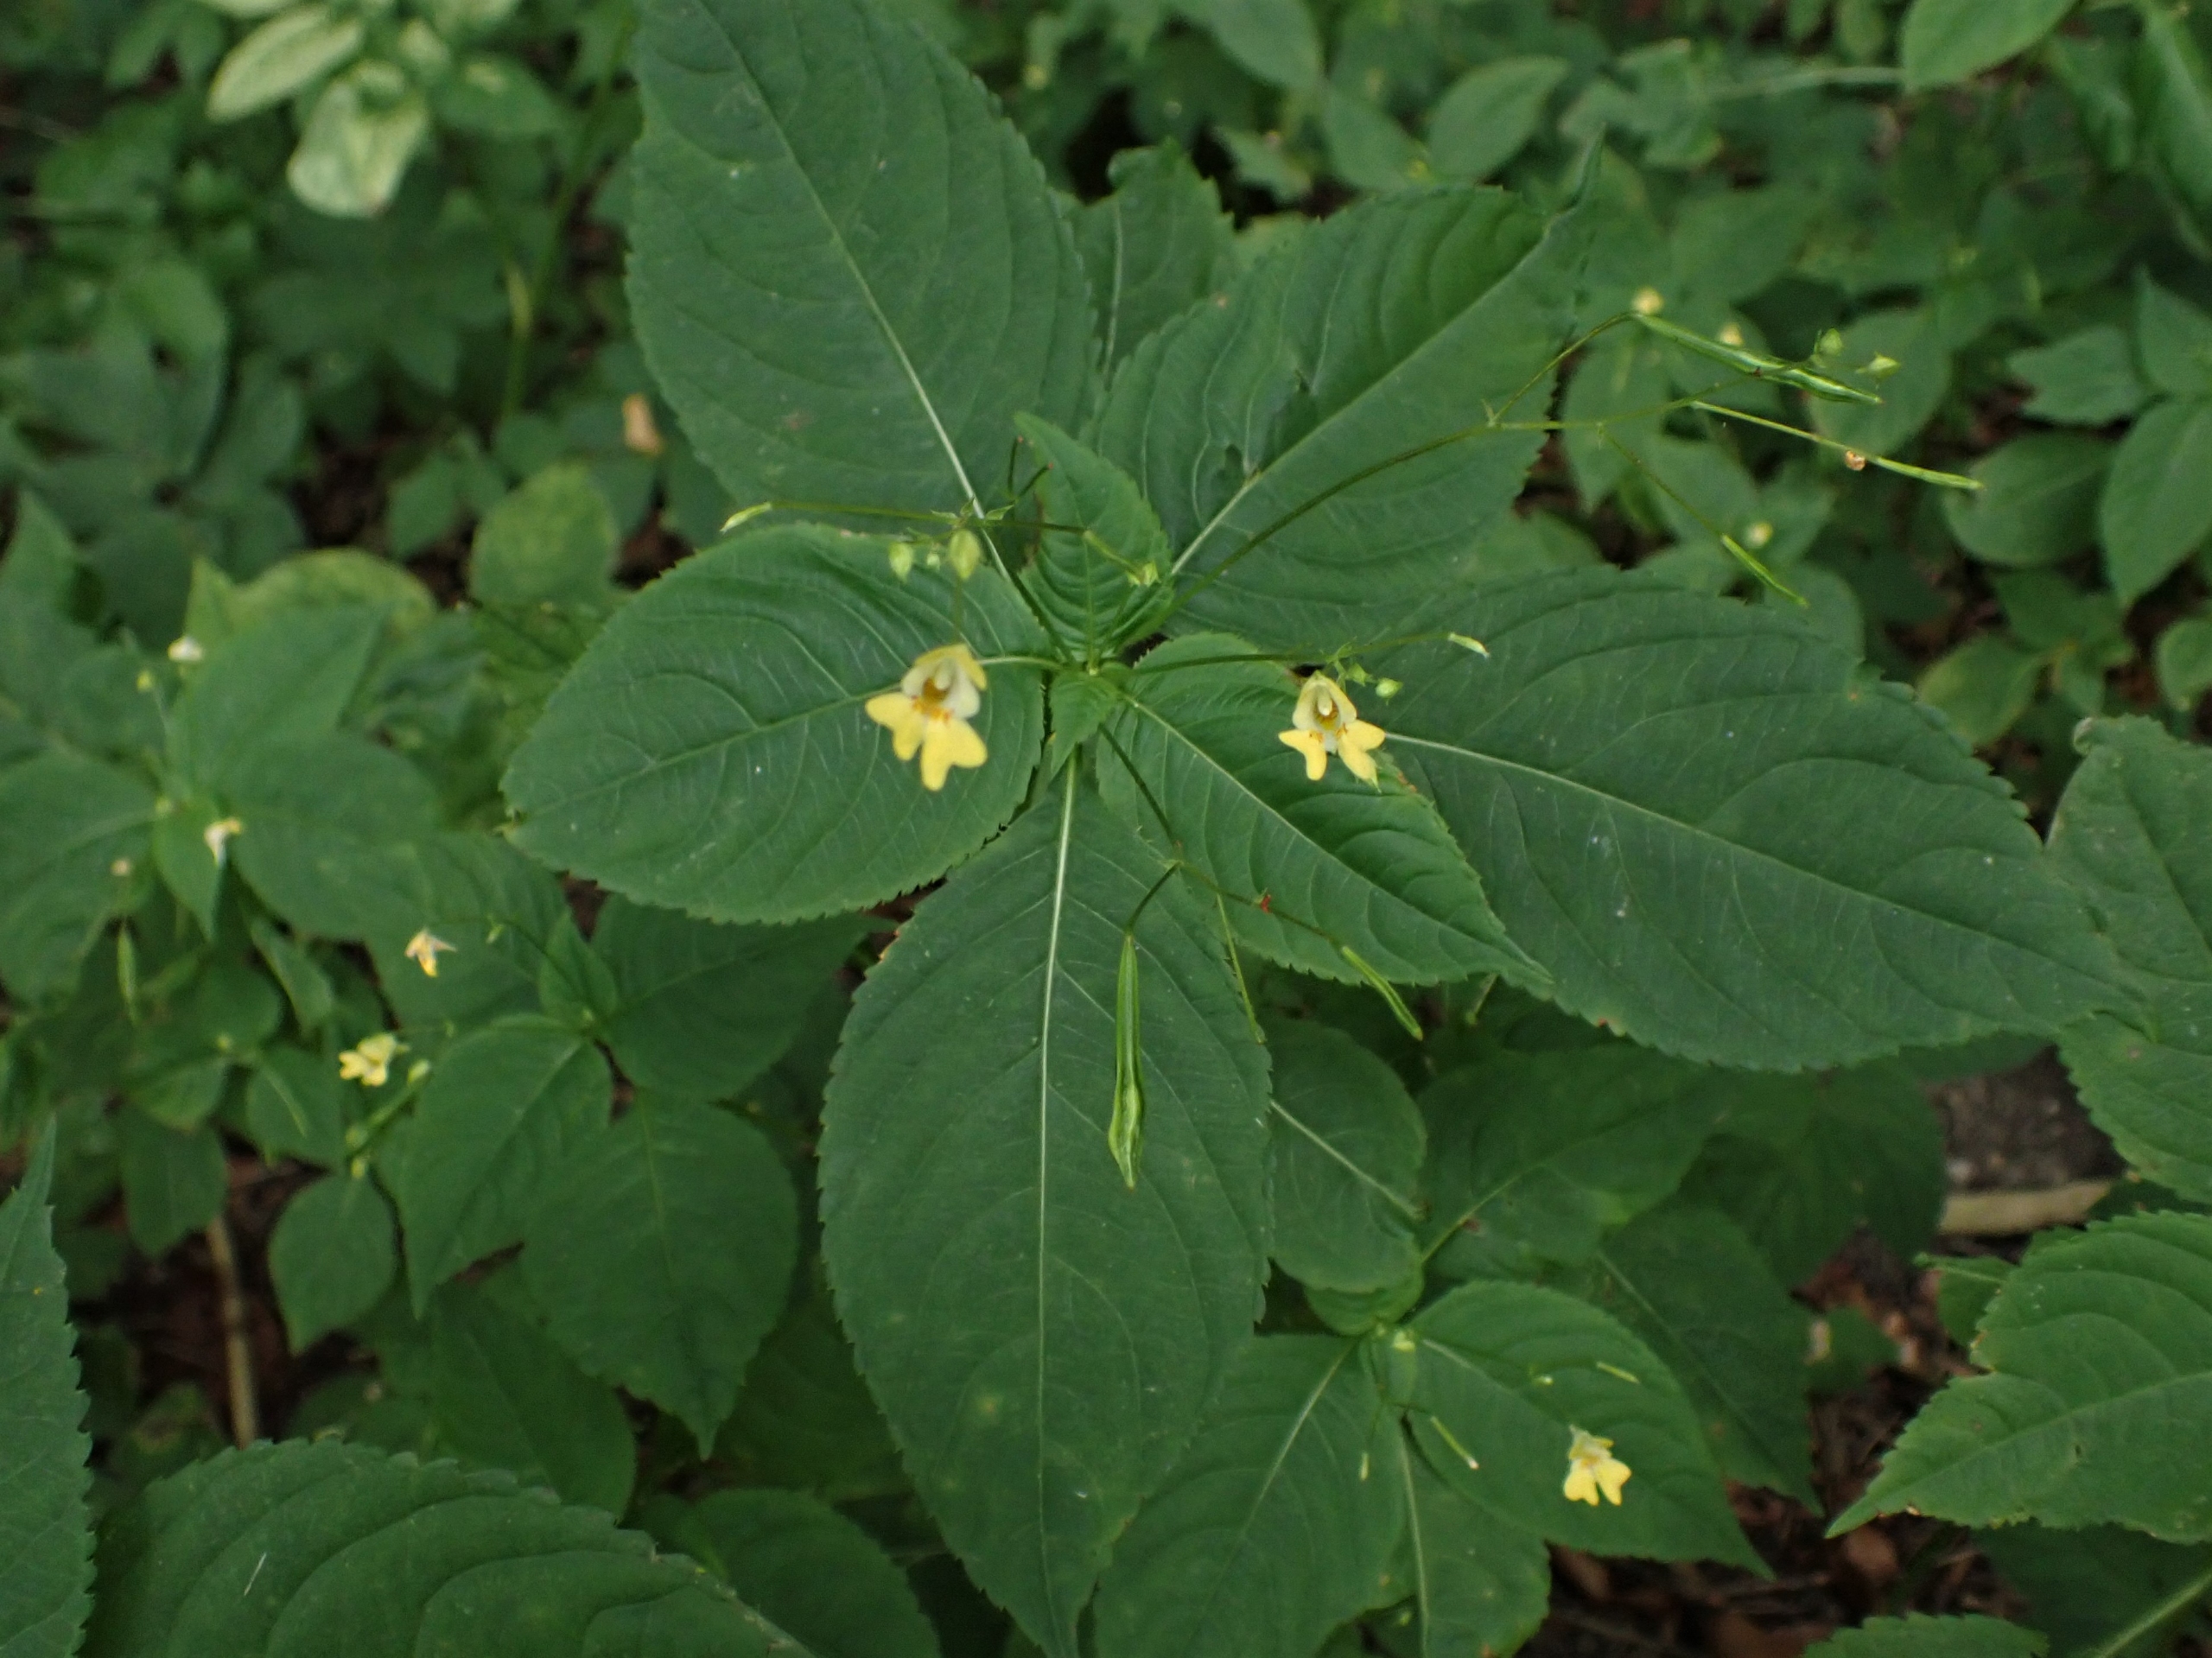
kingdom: Plantae
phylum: Tracheophyta
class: Magnoliopsida
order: Ericales
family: Balsaminaceae
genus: Impatiens
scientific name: Impatiens parviflora
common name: Småblomstret balsamin
